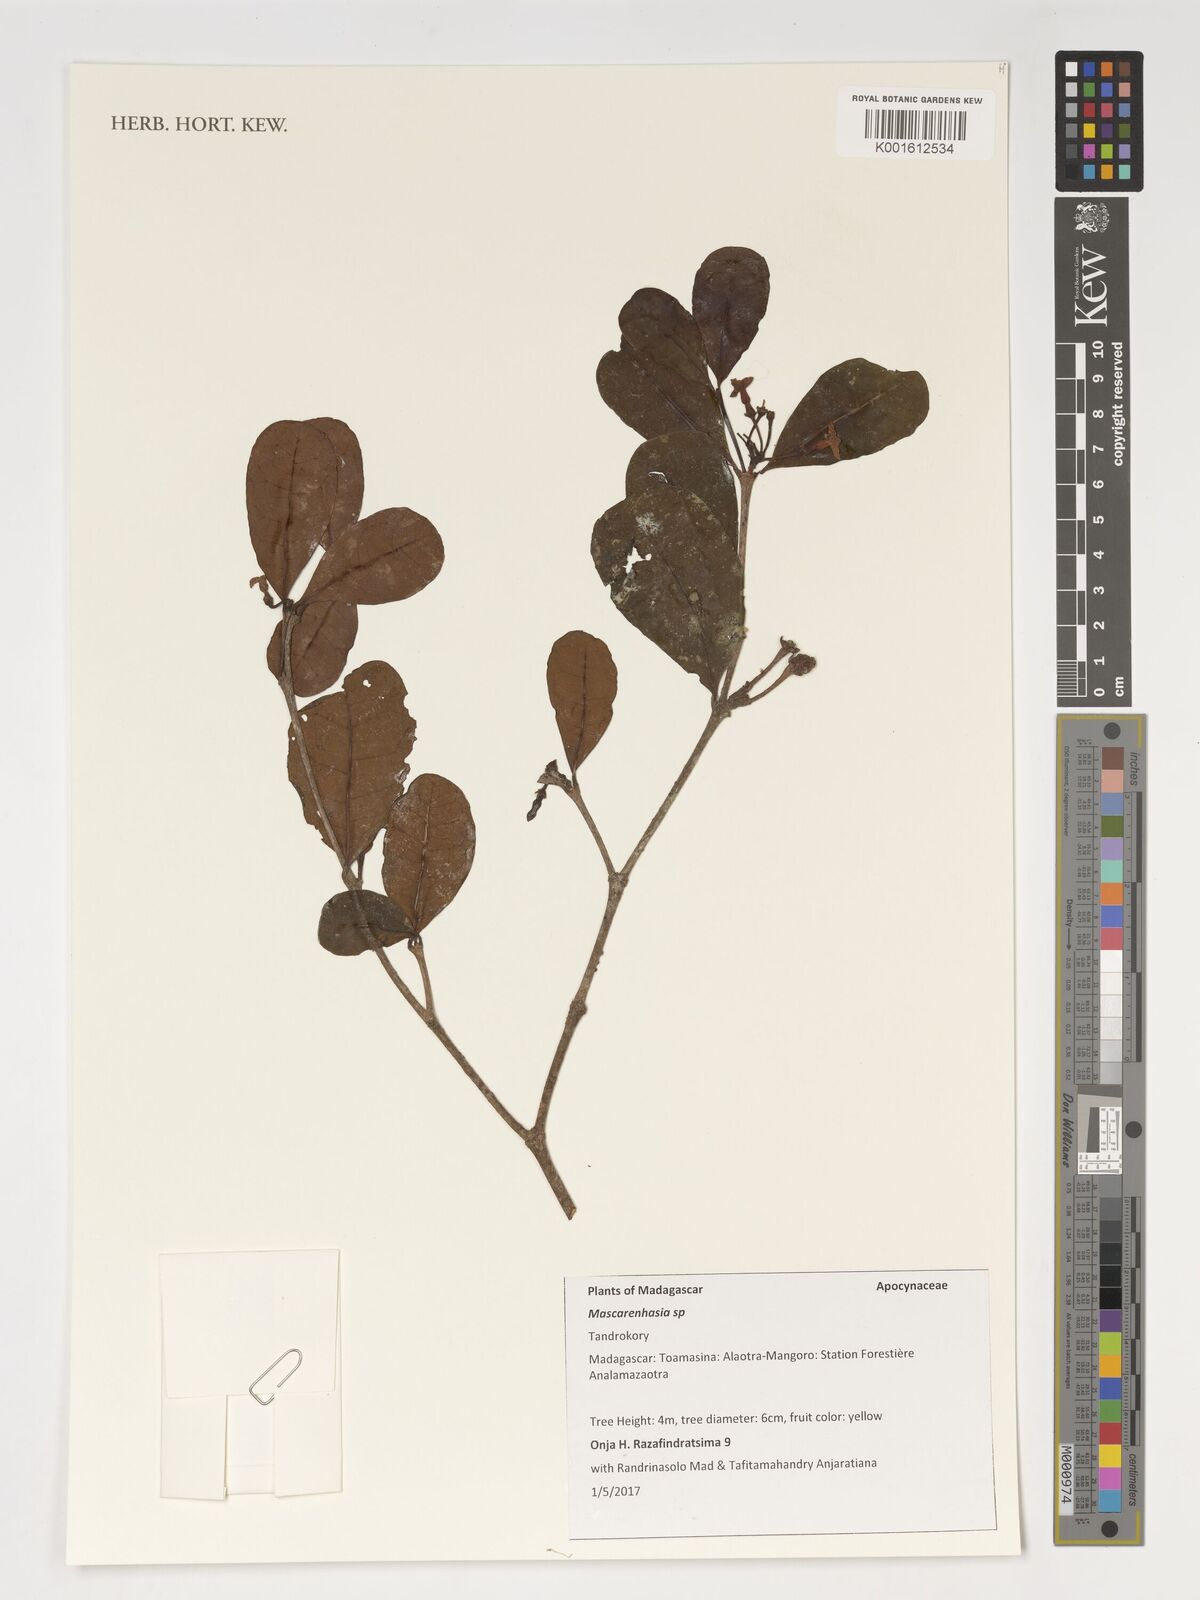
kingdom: Plantae
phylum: Tracheophyta
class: Magnoliopsida
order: Gentianales
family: Apocynaceae
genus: Mascarenhasia
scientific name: Mascarenhasia
